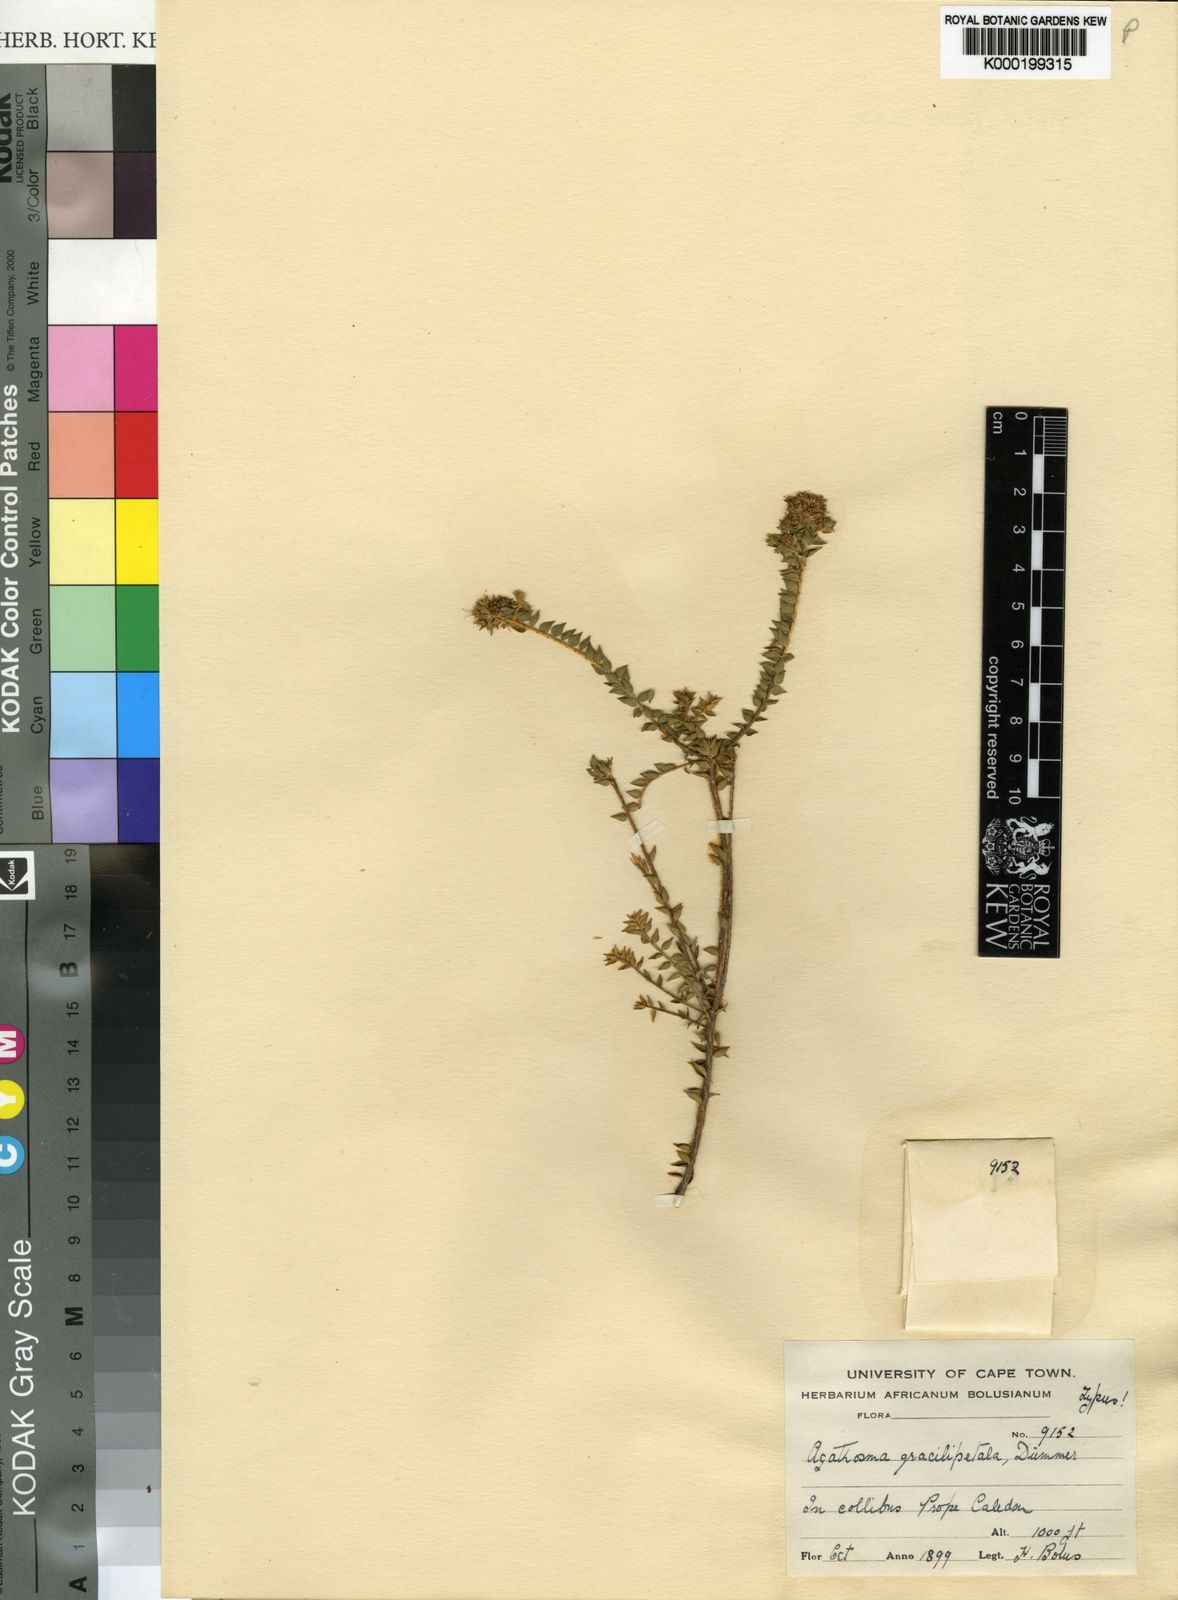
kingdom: Plantae
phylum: Tracheophyta
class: Magnoliopsida
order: Sapindales
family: Rutaceae
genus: Agathosma
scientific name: Agathosma imbricata
